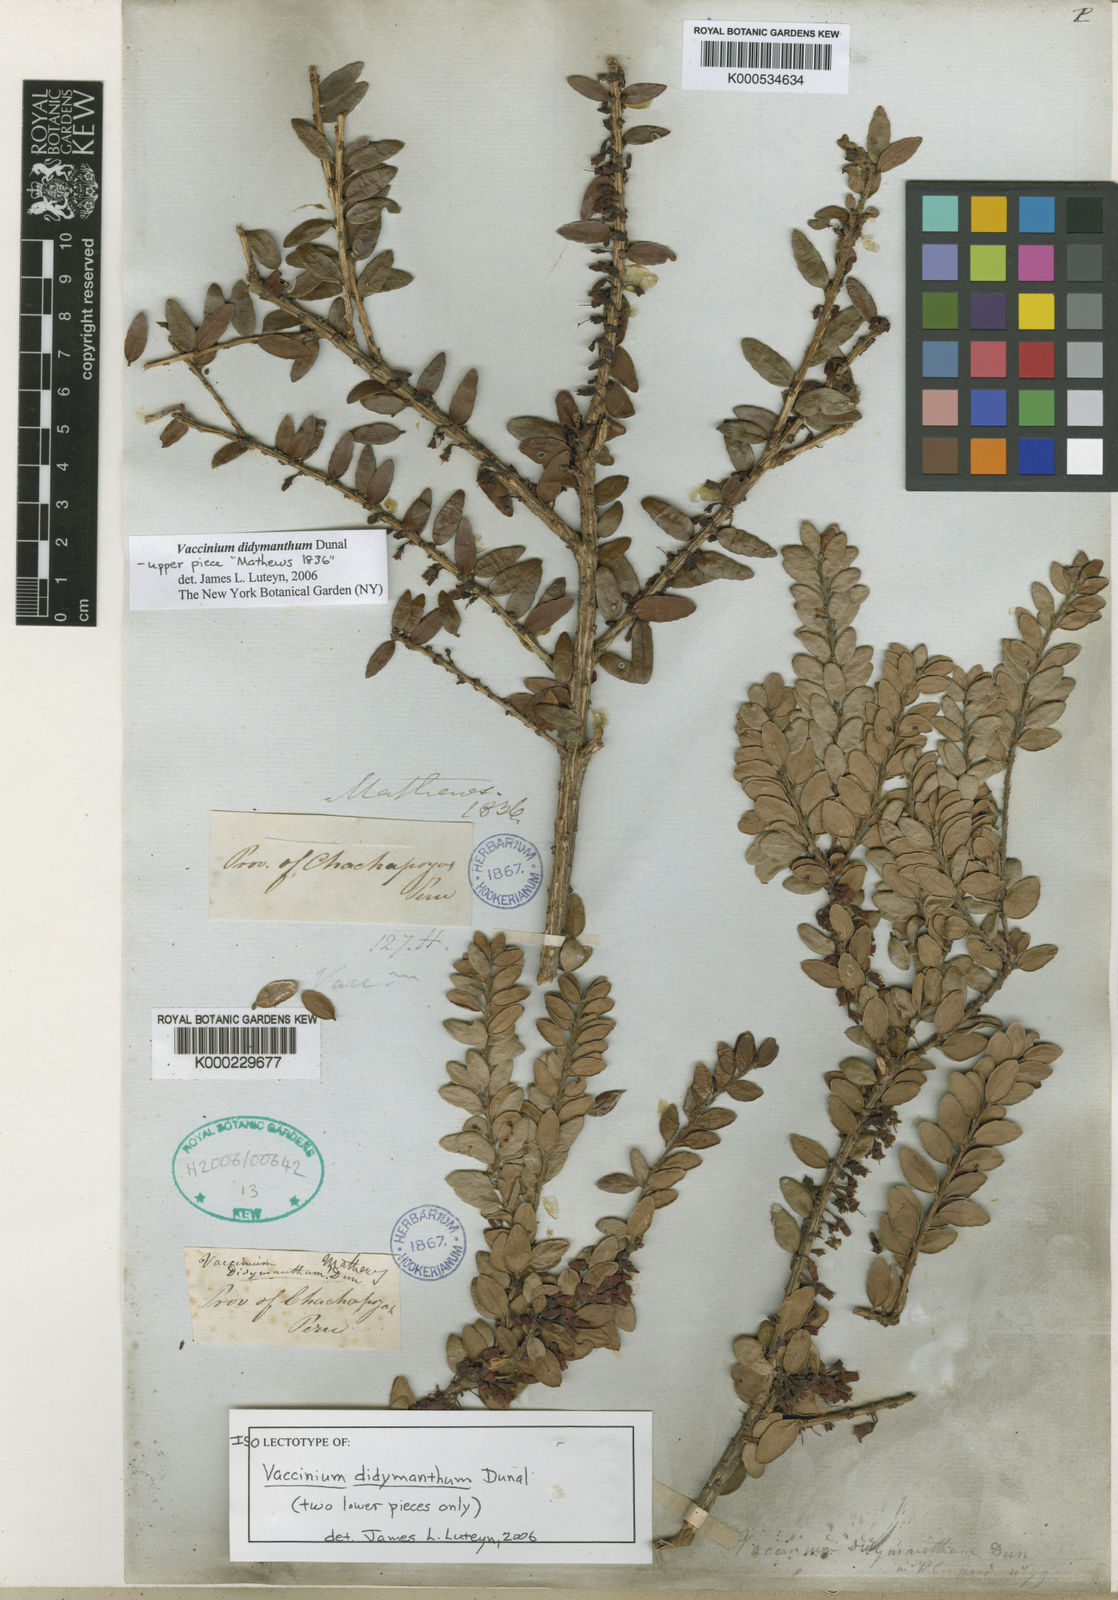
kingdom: Plantae
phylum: Tracheophyta
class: Magnoliopsida
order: Ericales
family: Ericaceae
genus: Vaccinium
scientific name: Vaccinium didymanthum
